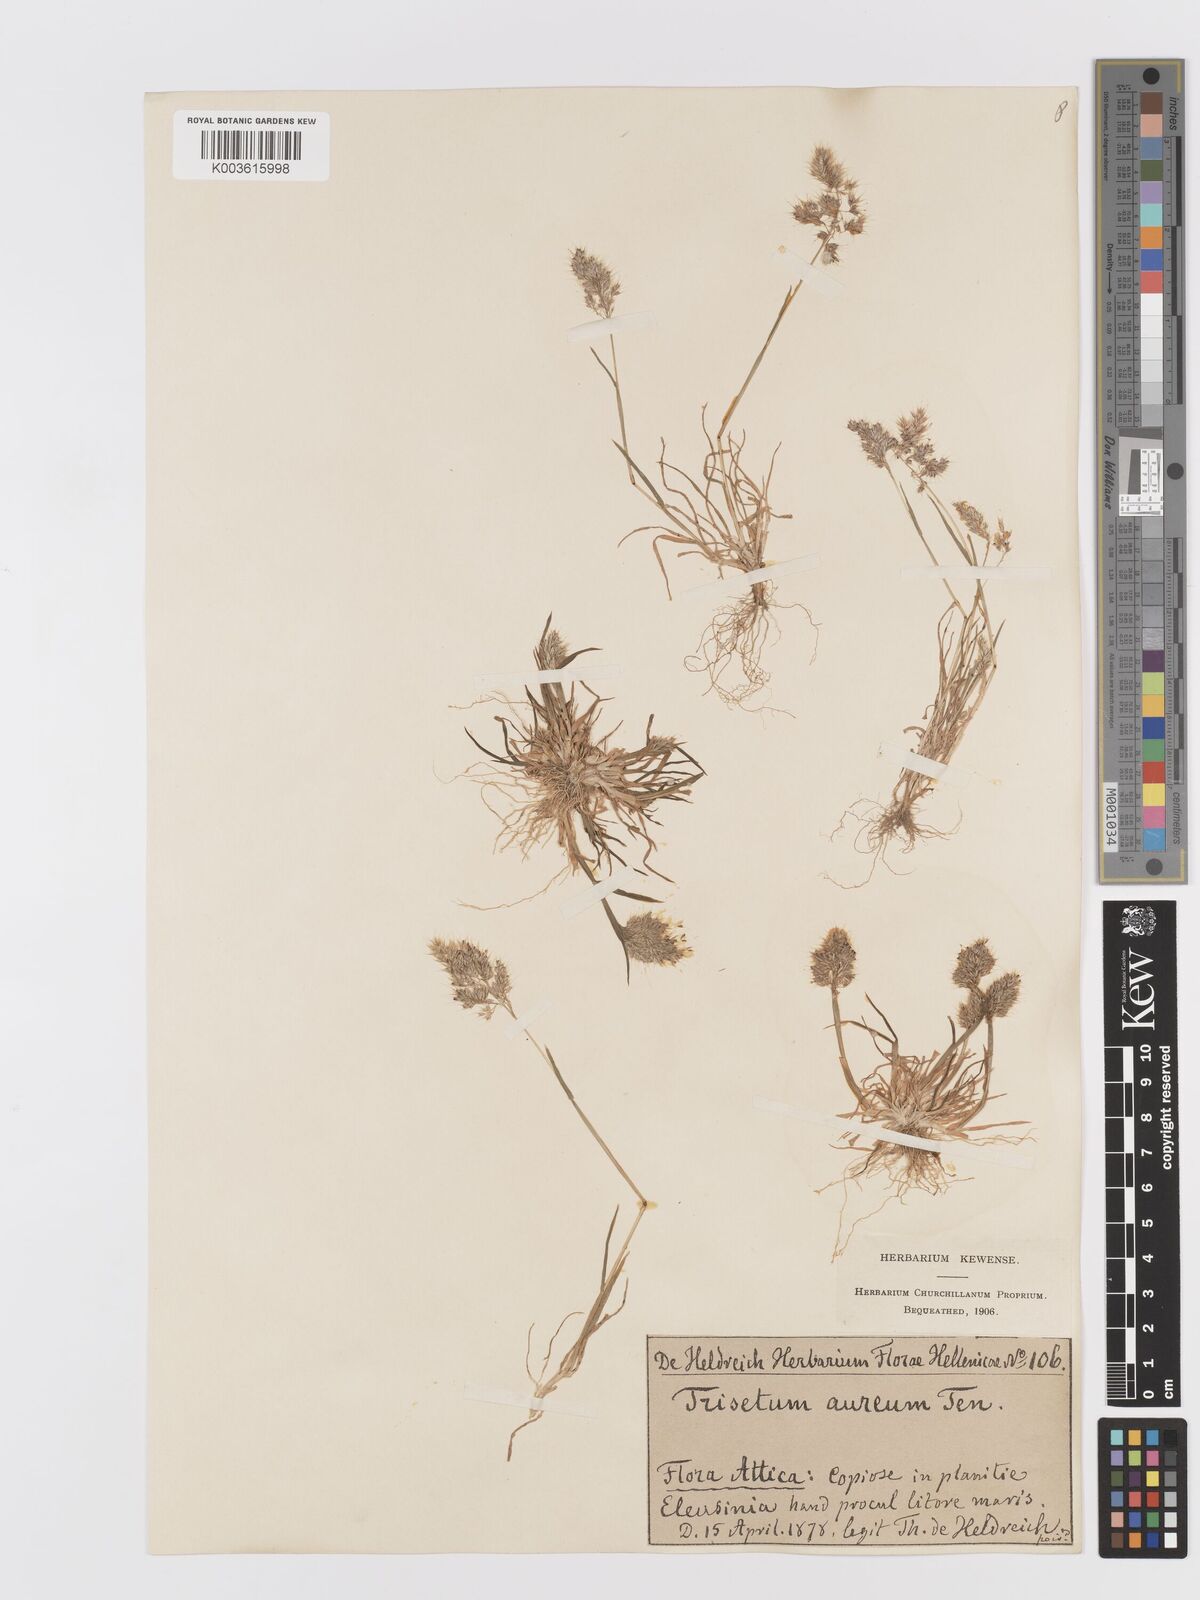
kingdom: Plantae
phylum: Tracheophyta
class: Liliopsida
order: Poales
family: Poaceae
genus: Trisetaria
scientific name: Trisetaria aurea
